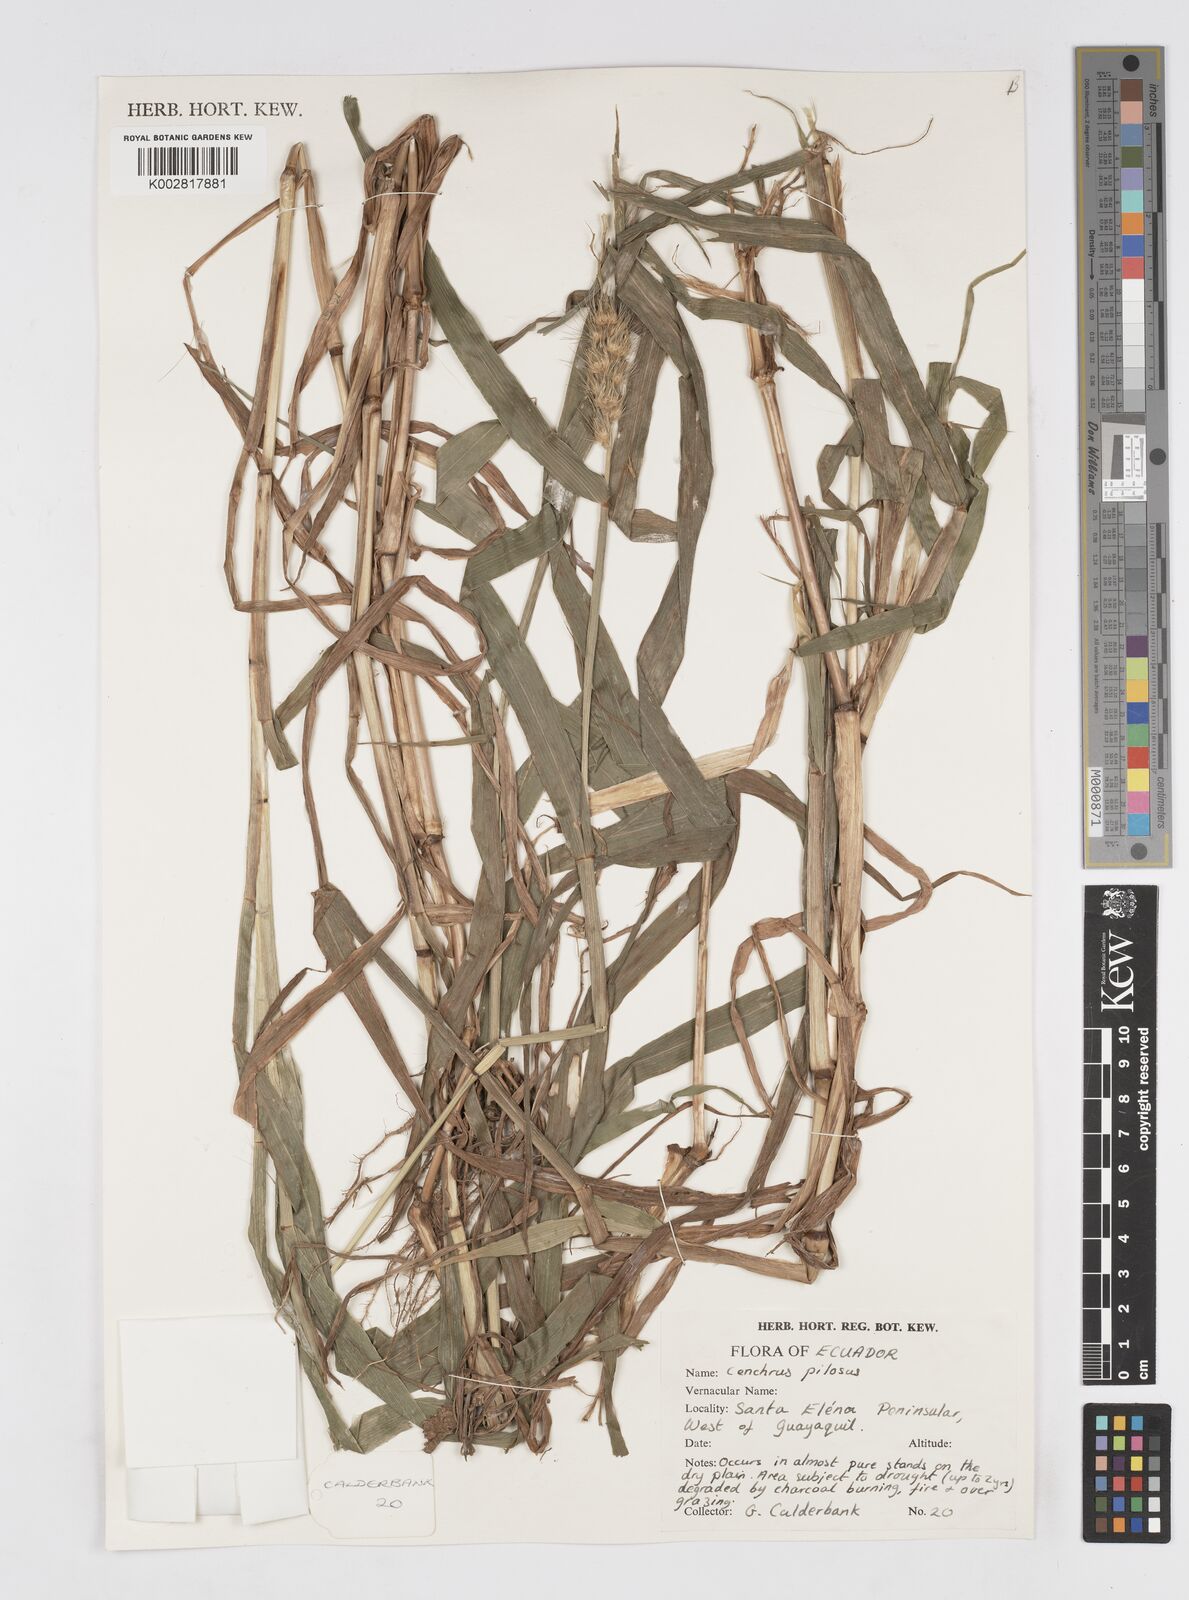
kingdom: Plantae
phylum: Tracheophyta
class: Liliopsida
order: Poales
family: Poaceae
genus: Cenchrus
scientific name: Cenchrus pilosus
